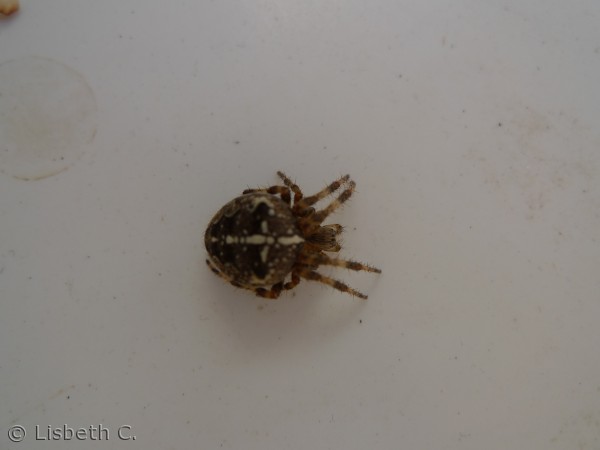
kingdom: Animalia
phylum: Arthropoda
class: Arachnida
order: Araneae
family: Araneidae
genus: Araneus
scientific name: Araneus diadematus
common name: Korsedderkop
